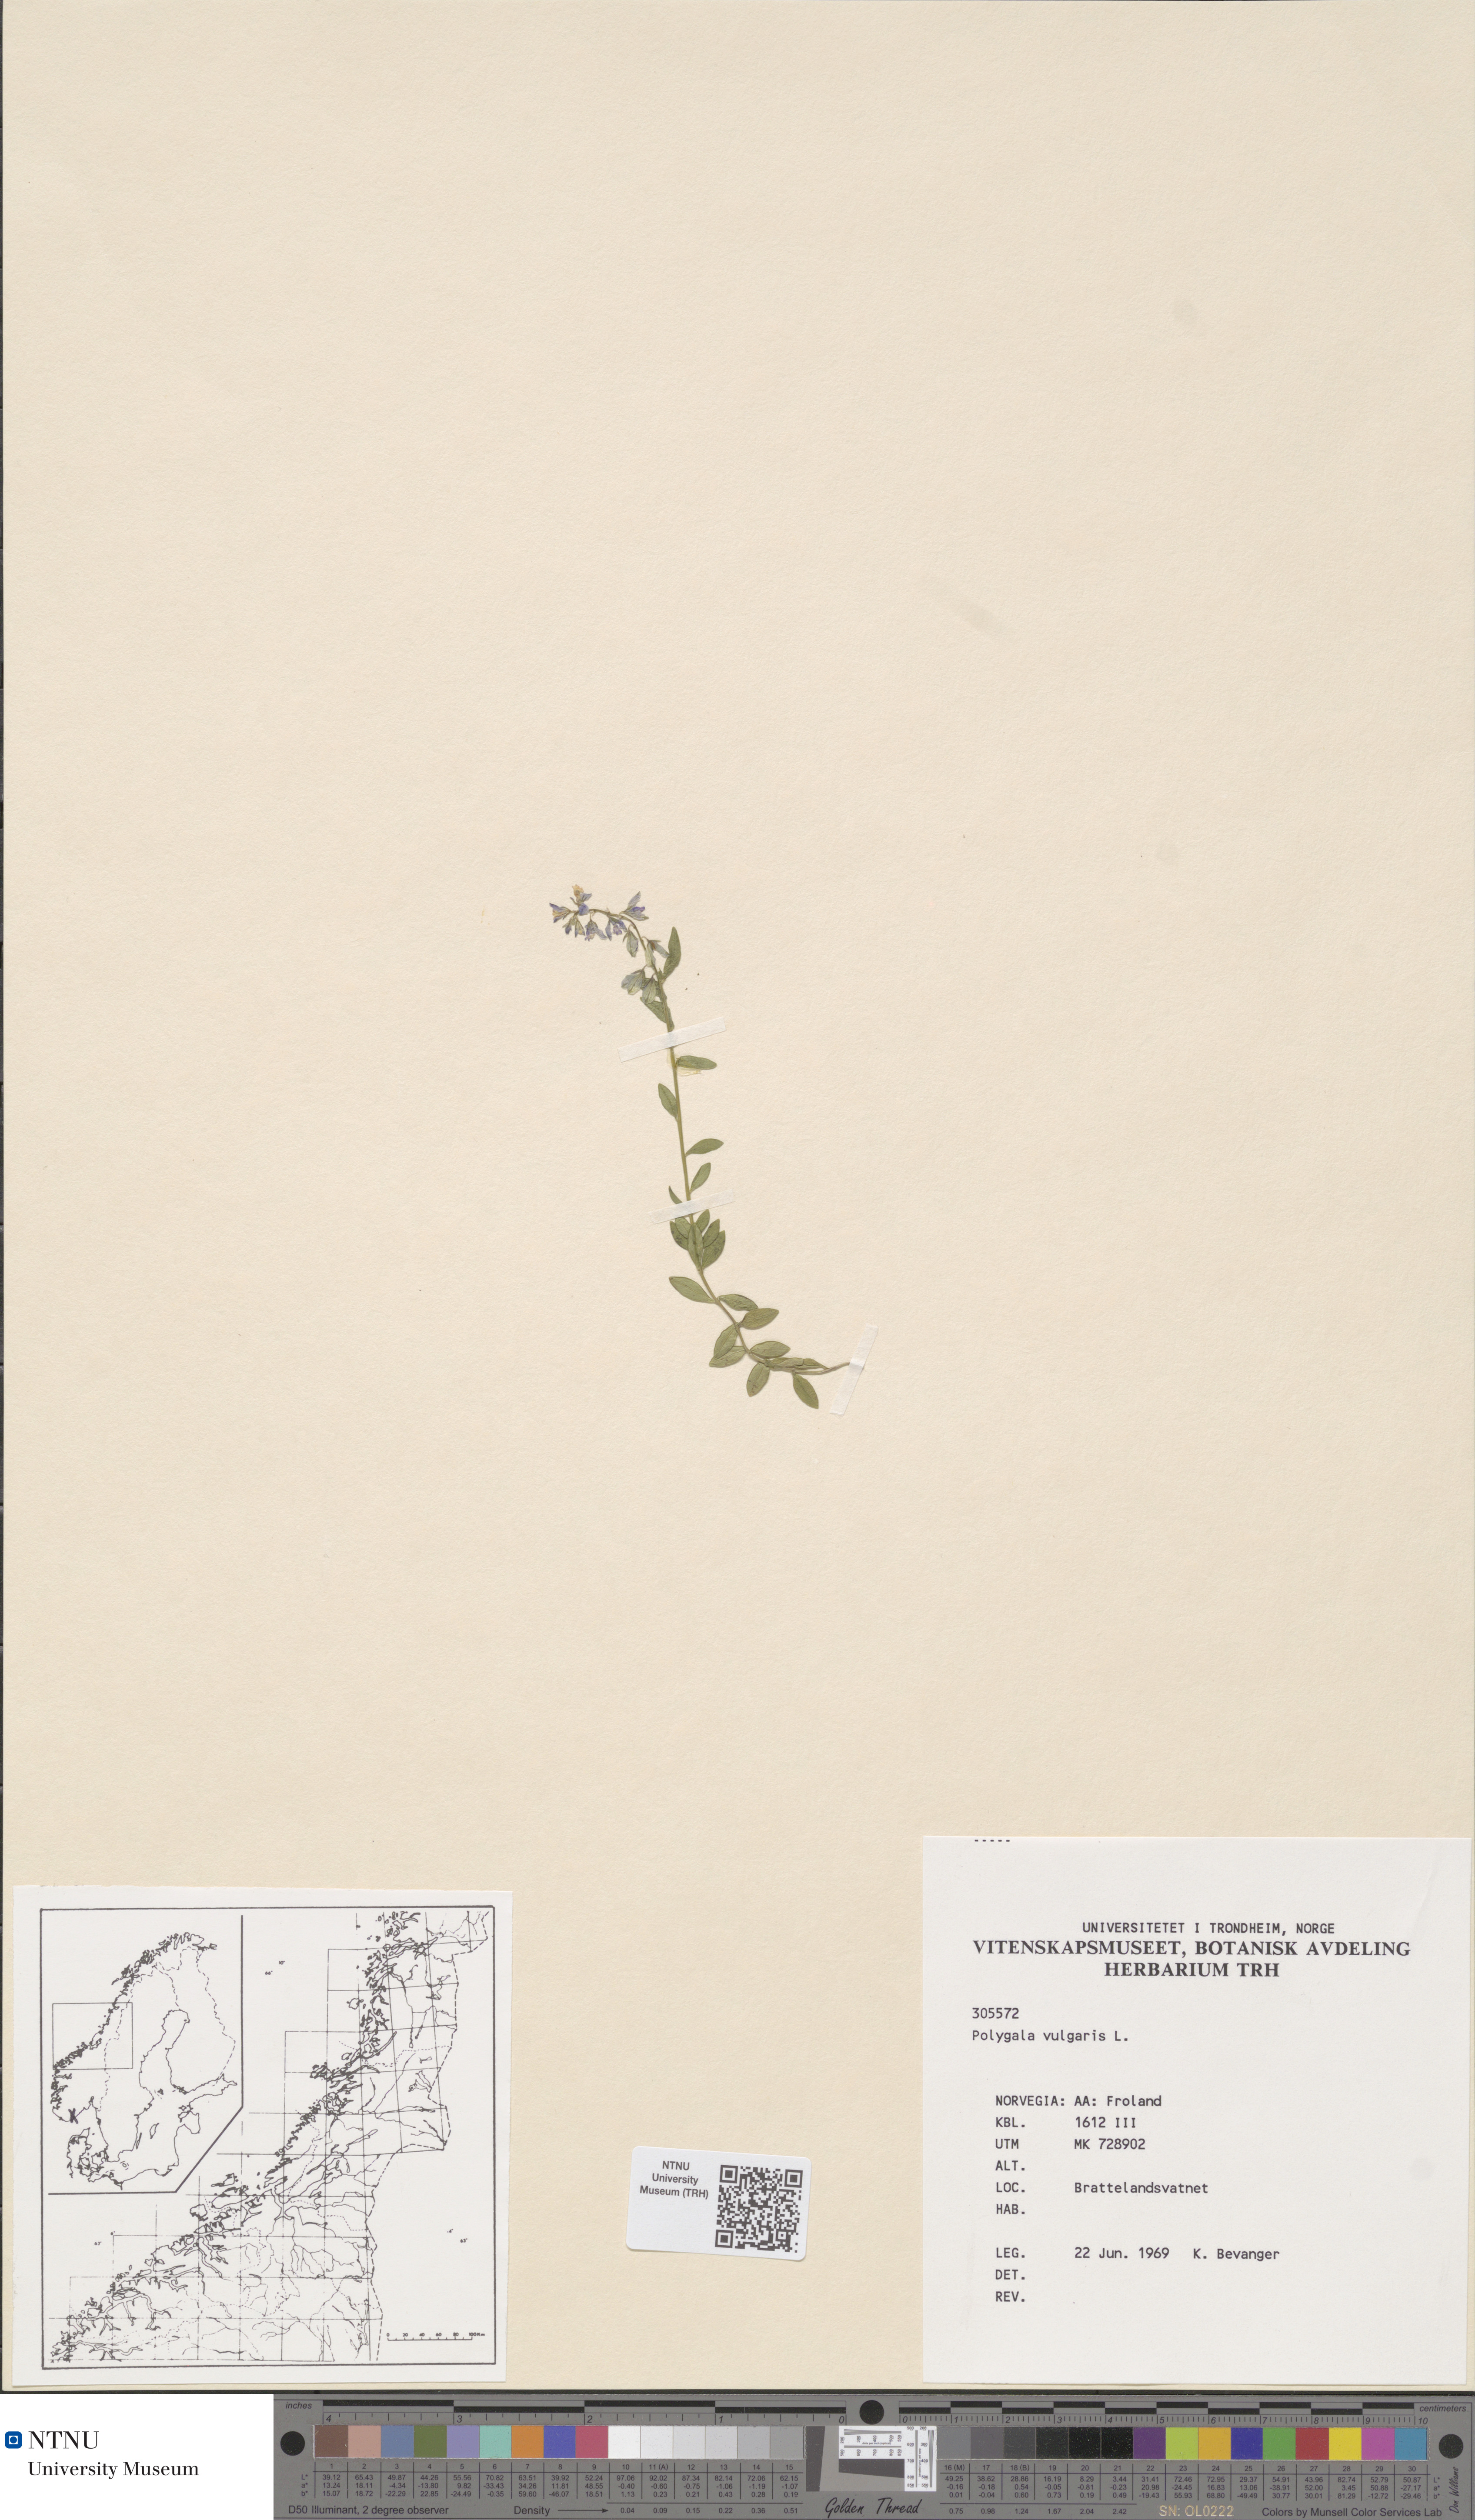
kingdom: Plantae
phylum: Tracheophyta
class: Magnoliopsida
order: Fabales
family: Polygalaceae
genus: Polygala
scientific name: Polygala vulgaris
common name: Common milkwort
